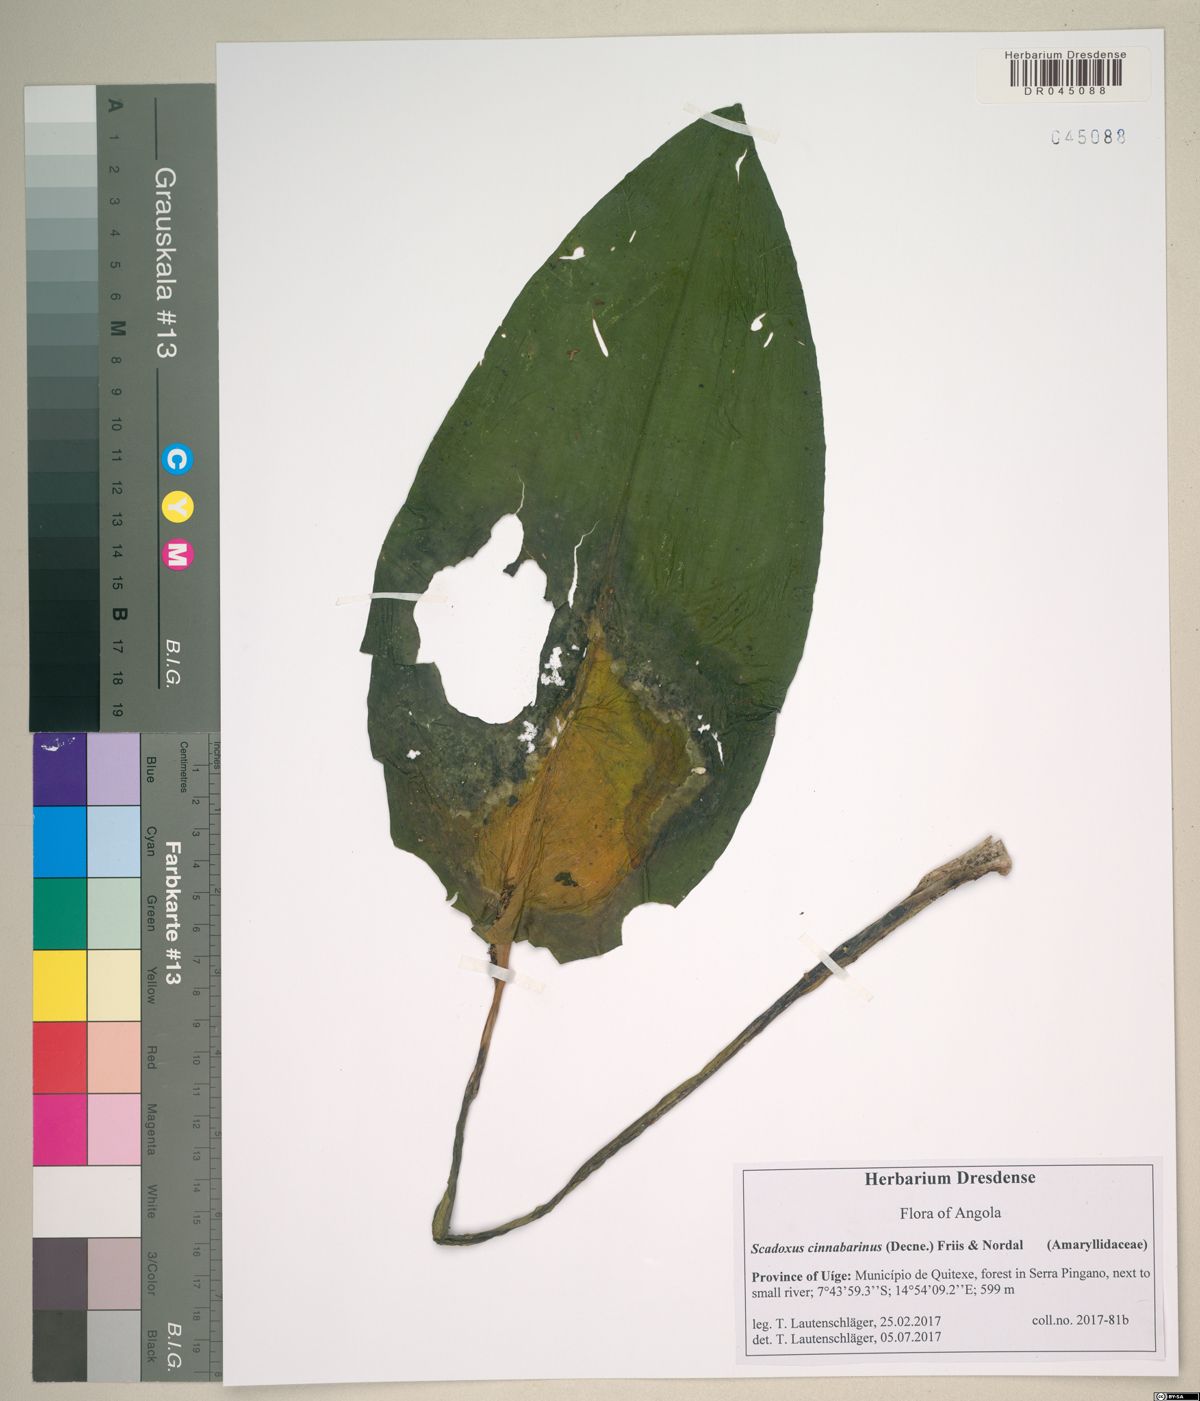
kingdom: Plantae
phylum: Tracheophyta
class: Liliopsida
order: Asparagales
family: Amaryllidaceae
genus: Scadoxus
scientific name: Scadoxus cinnabarinus
